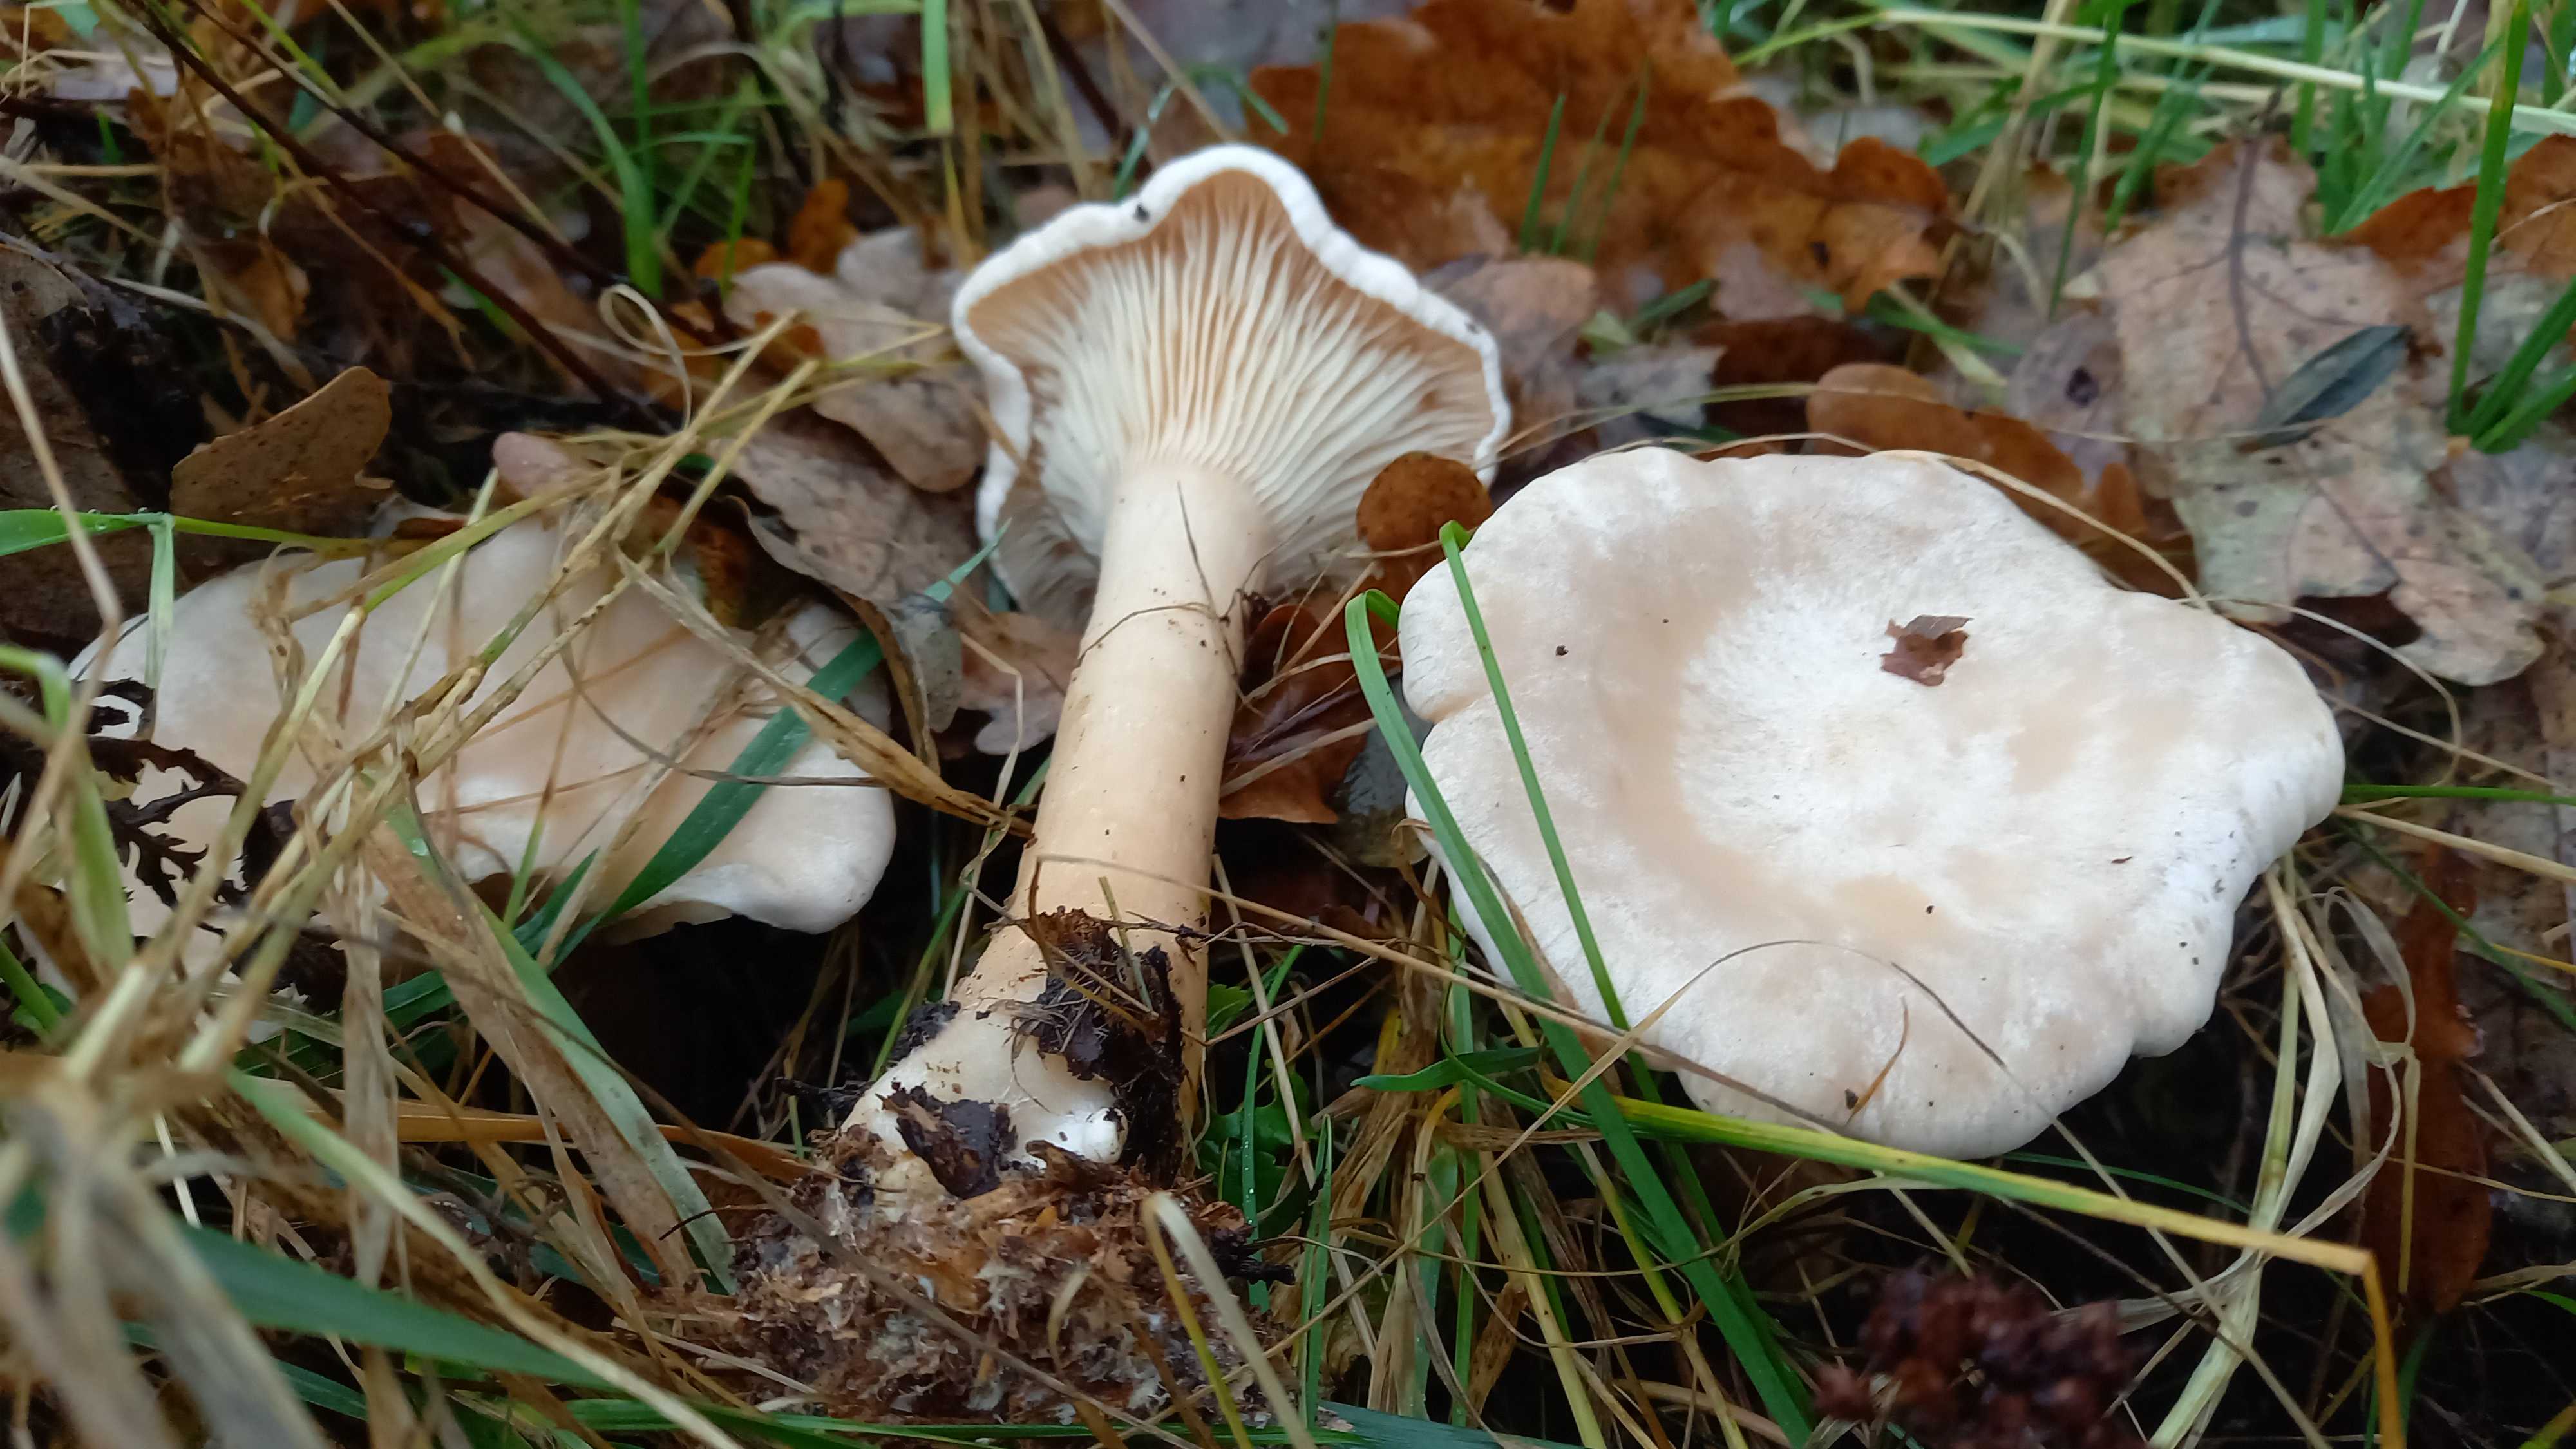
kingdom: Fungi
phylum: Basidiomycota
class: Agaricomycetes
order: Agaricales
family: Tricholomataceae
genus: Infundibulicybe
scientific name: Infundibulicybe geotropa
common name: stor tragthat
